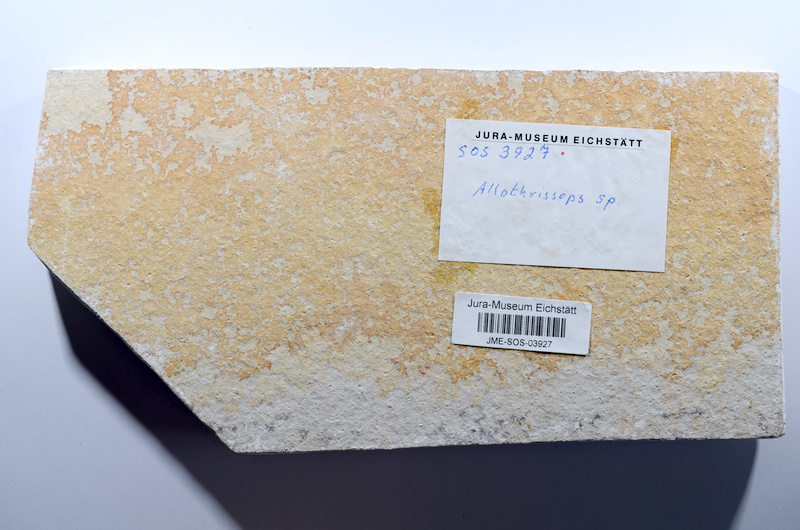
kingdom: Animalia
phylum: Chordata
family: Allothrissopidae
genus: Allothrissops
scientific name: Allothrissops
